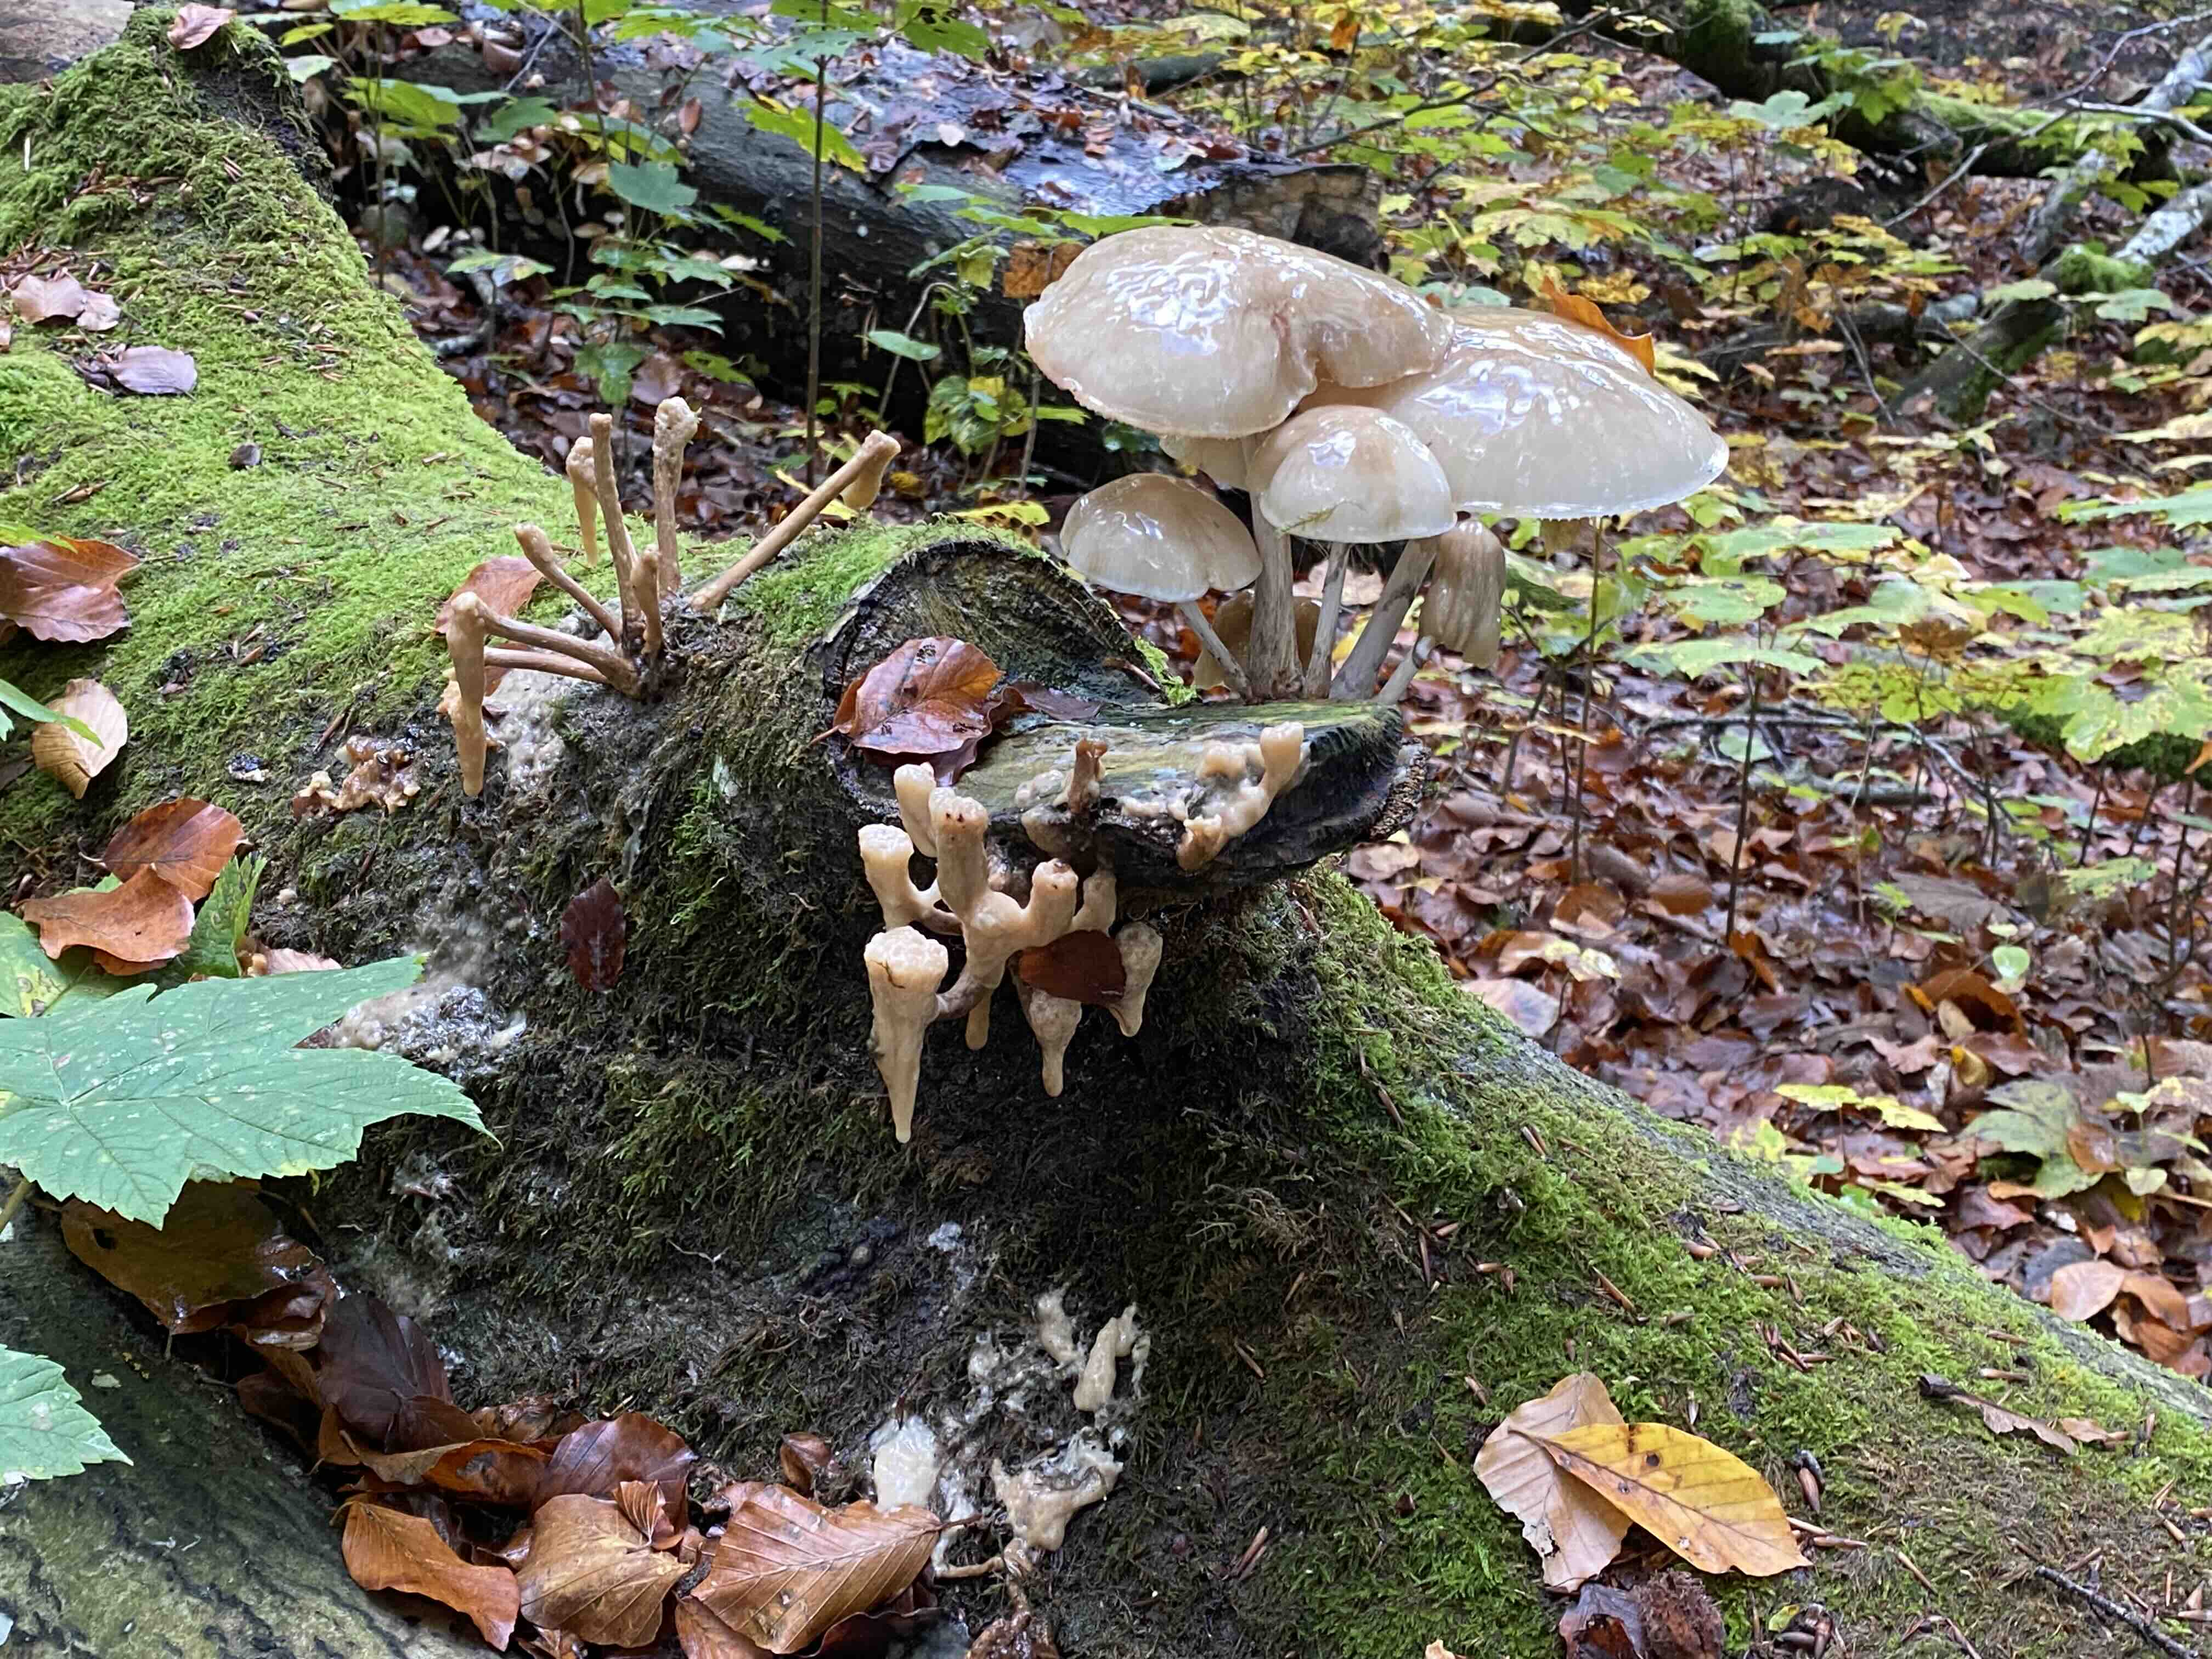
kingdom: Fungi
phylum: Basidiomycota
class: Agaricomycetes
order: Agaricales
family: Physalacriaceae
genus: Mucidula
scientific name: Mucidula mucida
